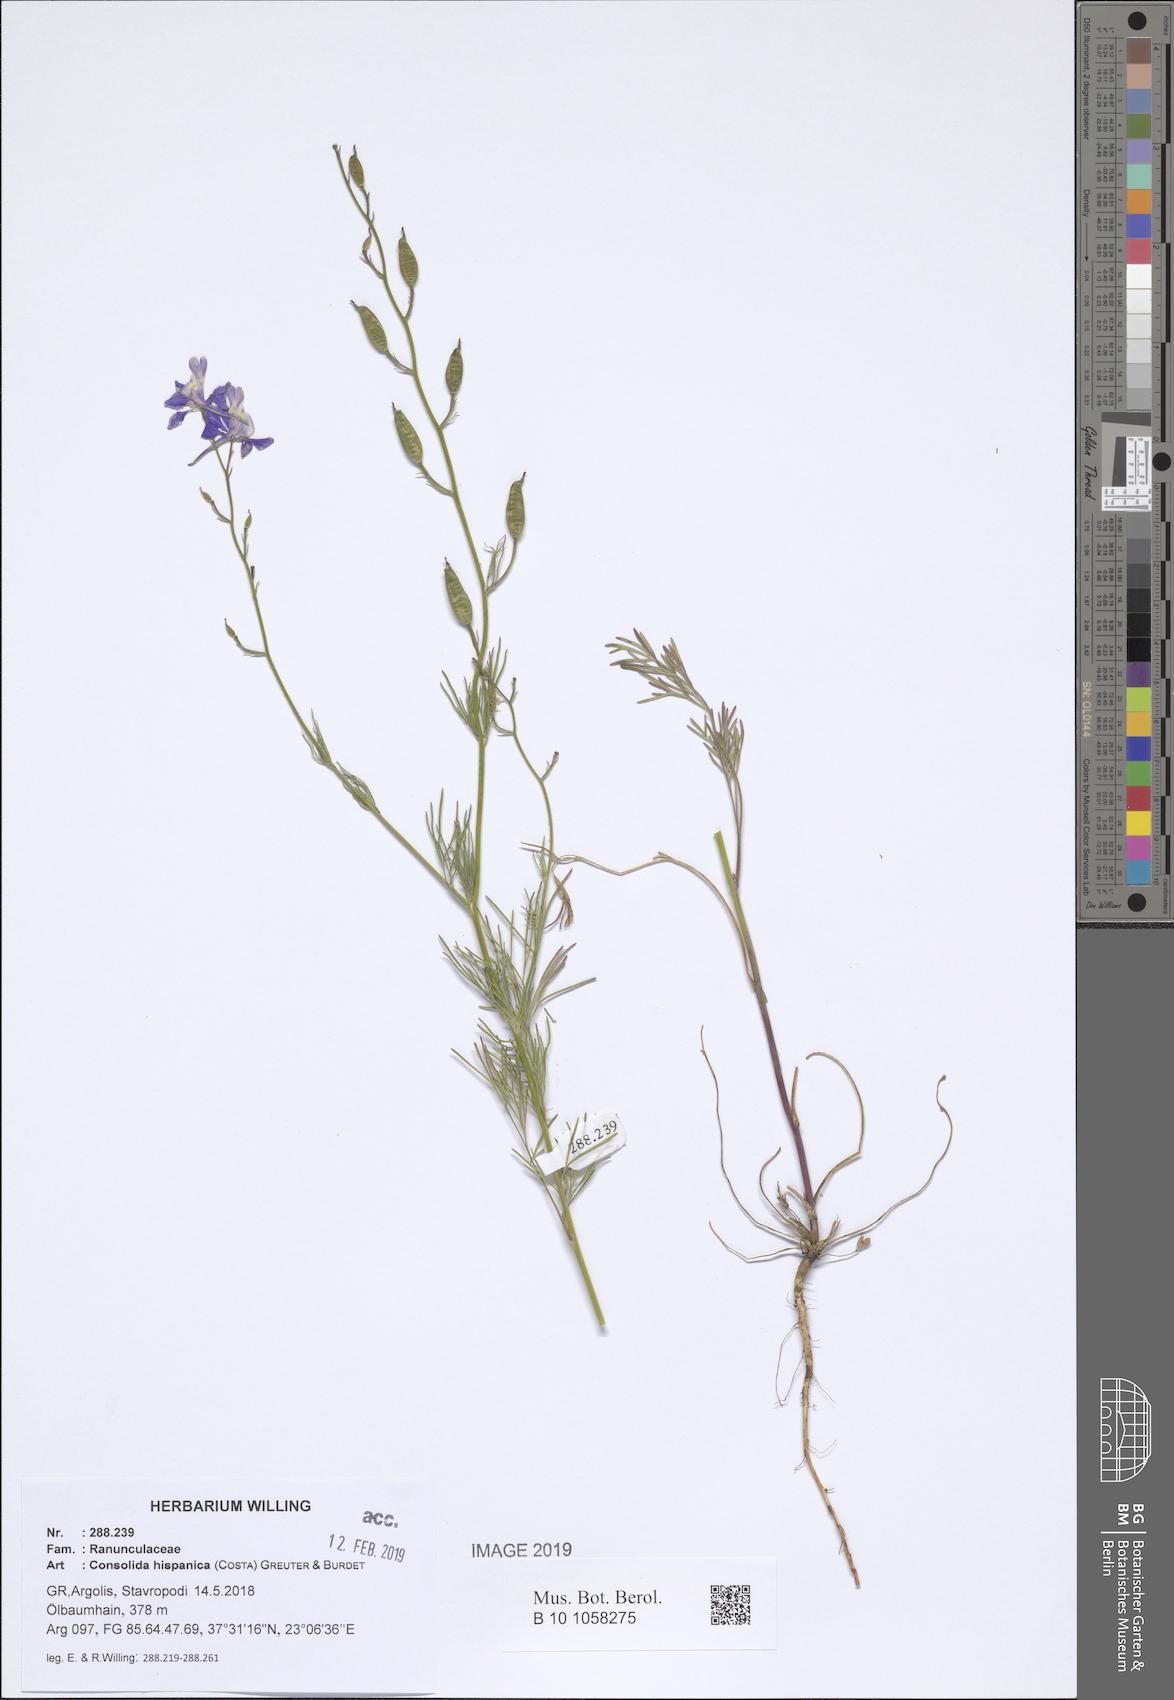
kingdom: Plantae
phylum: Tracheophyta
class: Magnoliopsida
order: Ranunculales
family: Ranunculaceae
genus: Delphinium
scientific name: Delphinium hispanicum
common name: Oriental knight's-spur
